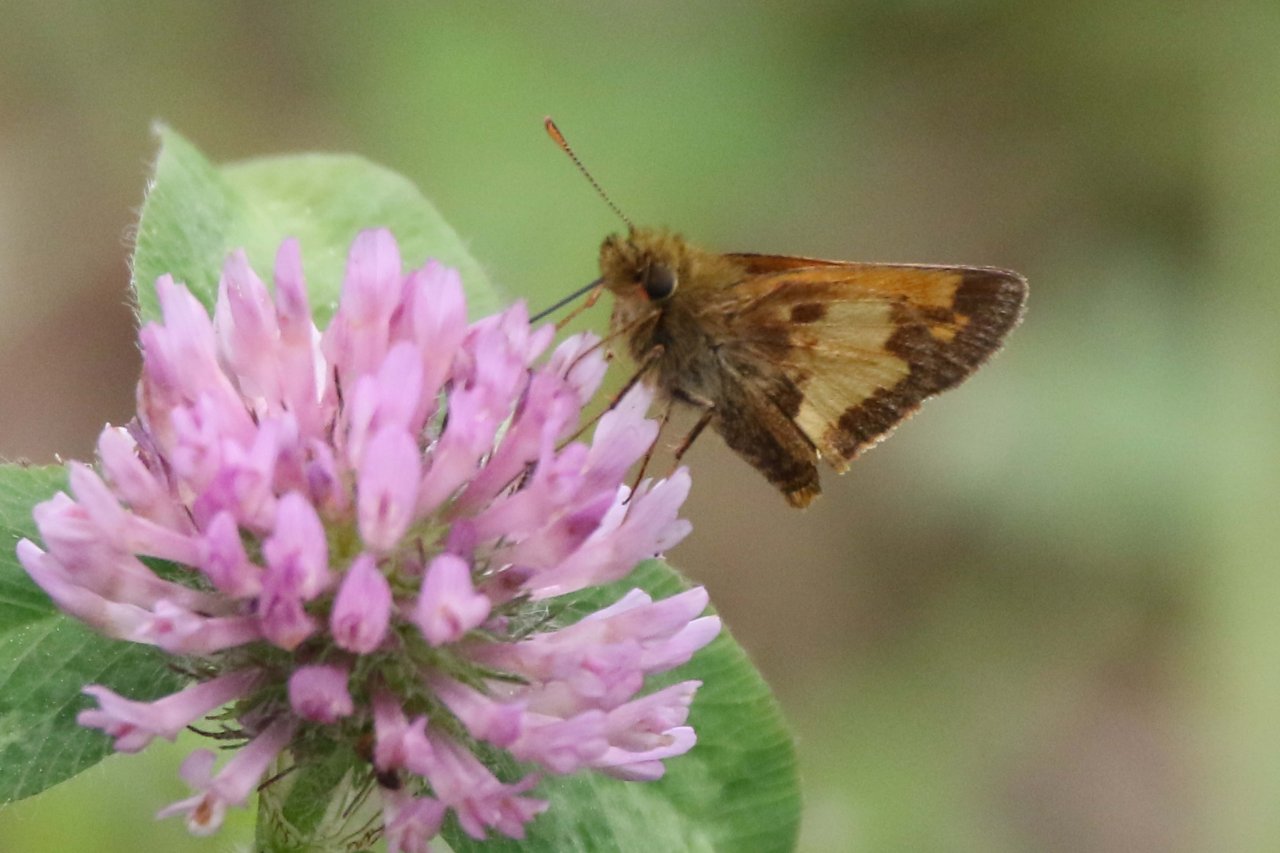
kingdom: Animalia
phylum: Arthropoda
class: Insecta
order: Lepidoptera
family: Hesperiidae
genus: Lon
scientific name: Lon hobomok
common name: Hobomok Skipper
